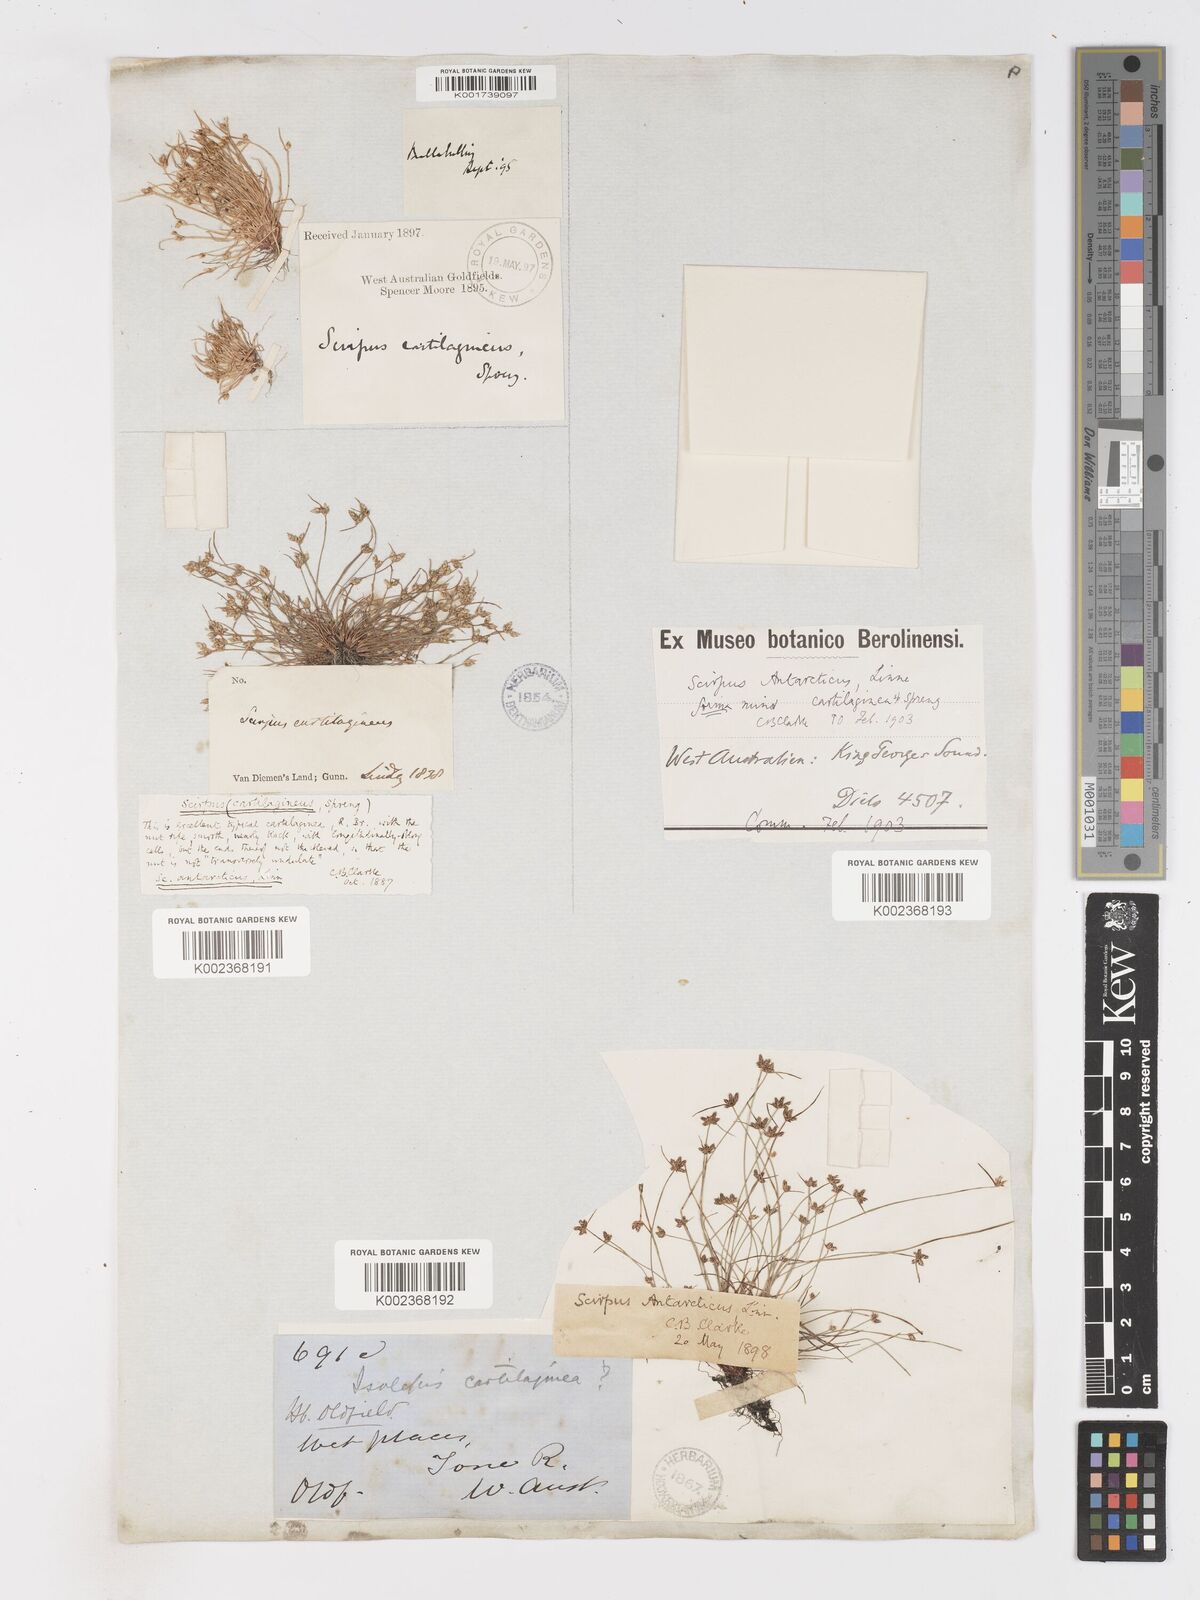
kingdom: Plantae
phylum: Tracheophyta
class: Liliopsida
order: Poales
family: Cyperaceae
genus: Isolepis
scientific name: Isolepis antarctica
